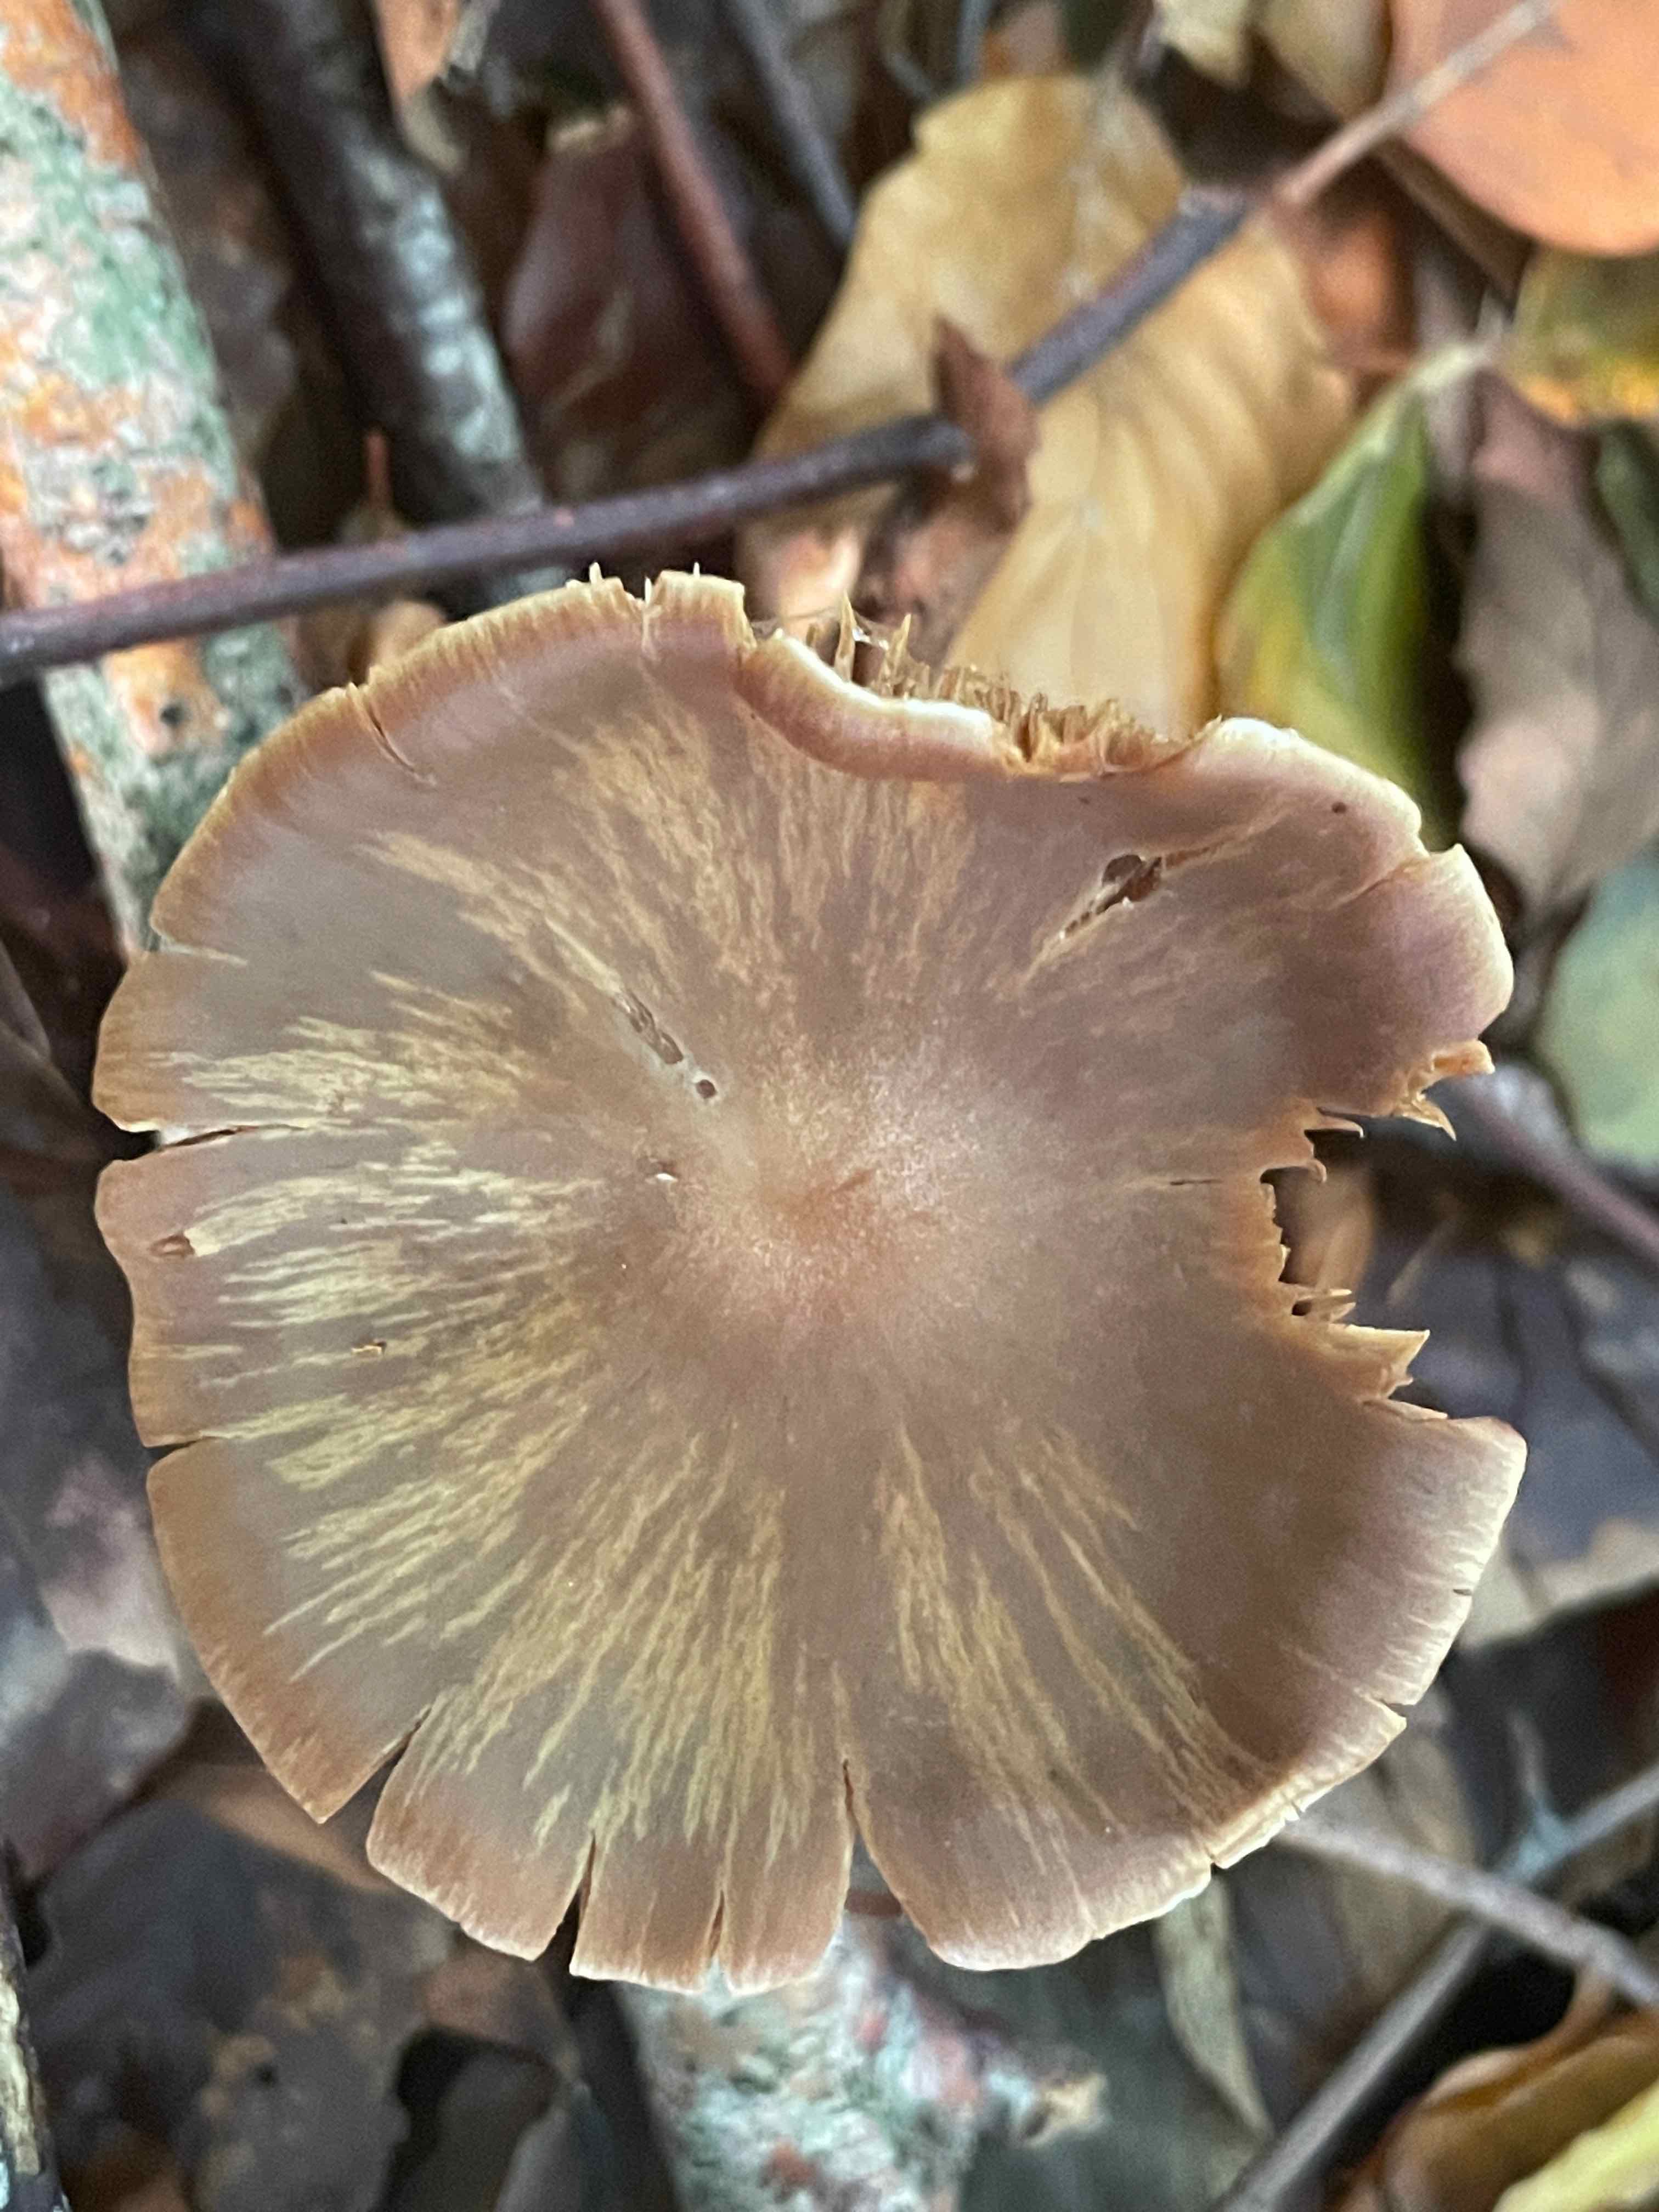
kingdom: Fungi
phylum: Basidiomycota
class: Agaricomycetes
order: Agaricales
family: Cortinariaceae
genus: Cortinarius
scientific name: Cortinarius acetosus
